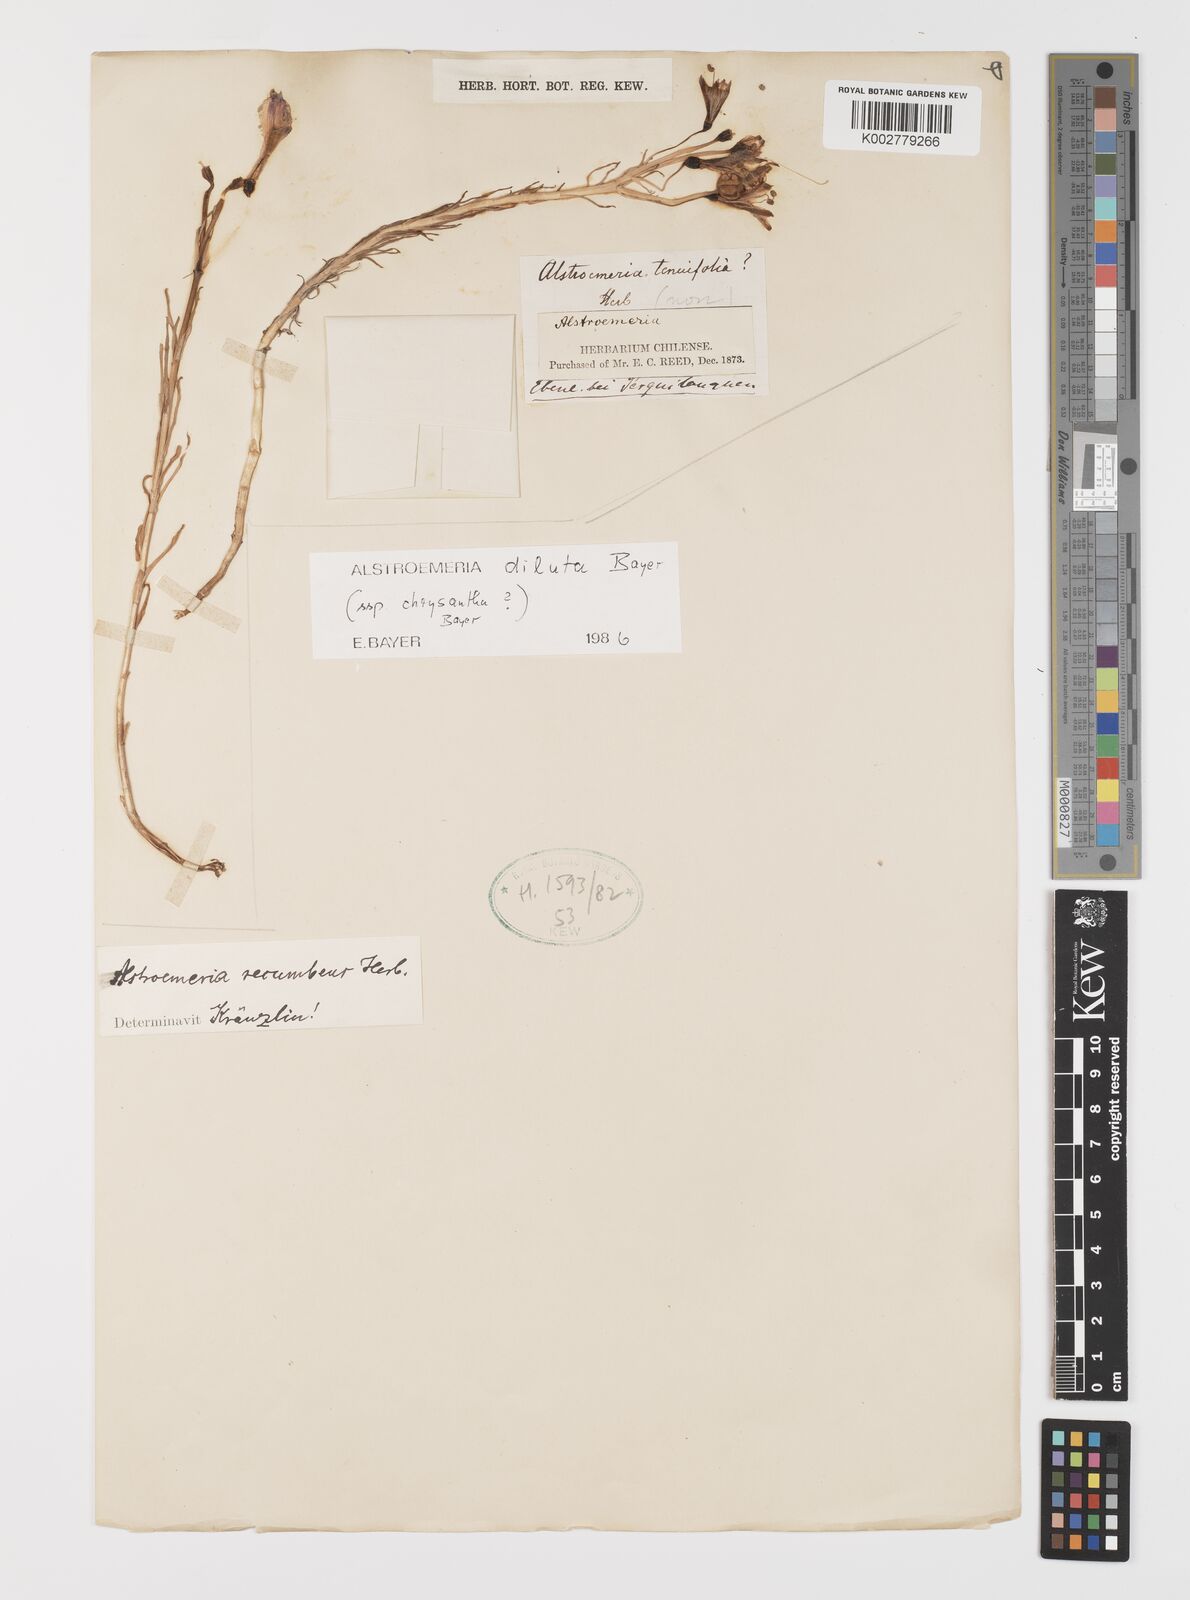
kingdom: Plantae
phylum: Tracheophyta
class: Liliopsida
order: Liliales
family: Alstroemeriaceae
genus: Alstroemeria
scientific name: Alstroemeria chrysantha
